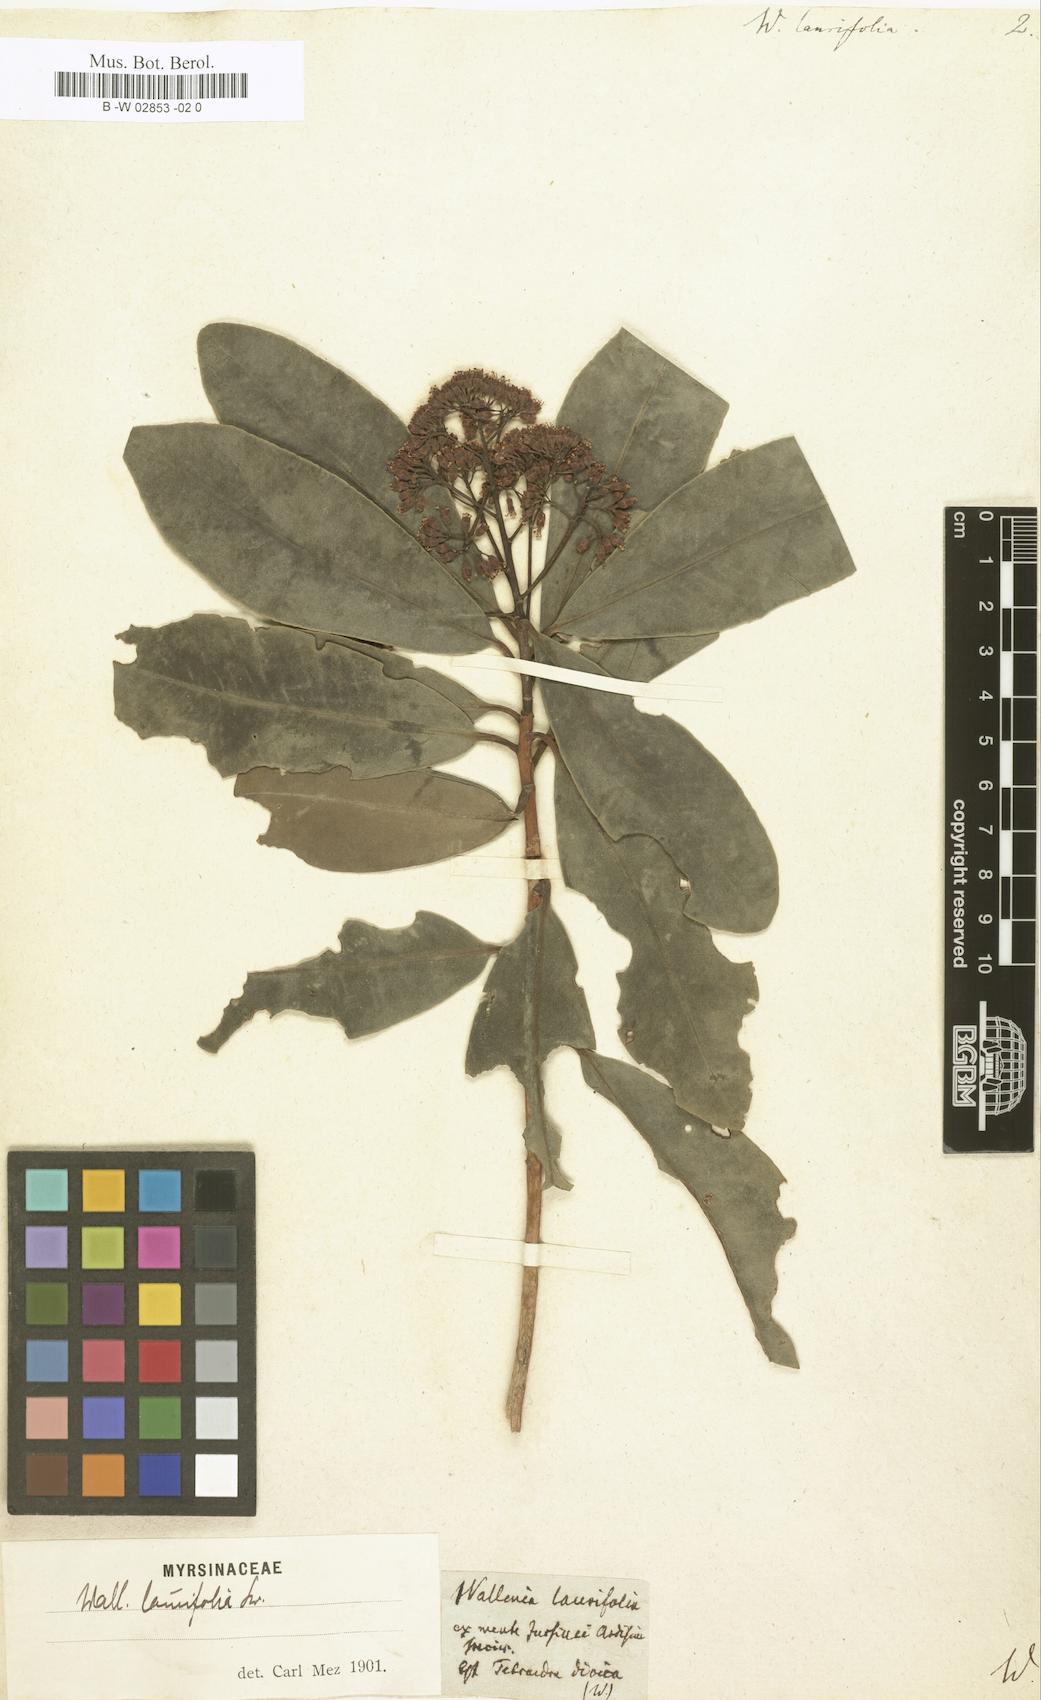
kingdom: Plantae
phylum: Tracheophyta
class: Magnoliopsida
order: Ericales
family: Primulaceae
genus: Wallenia
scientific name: Wallenia laurifolia
